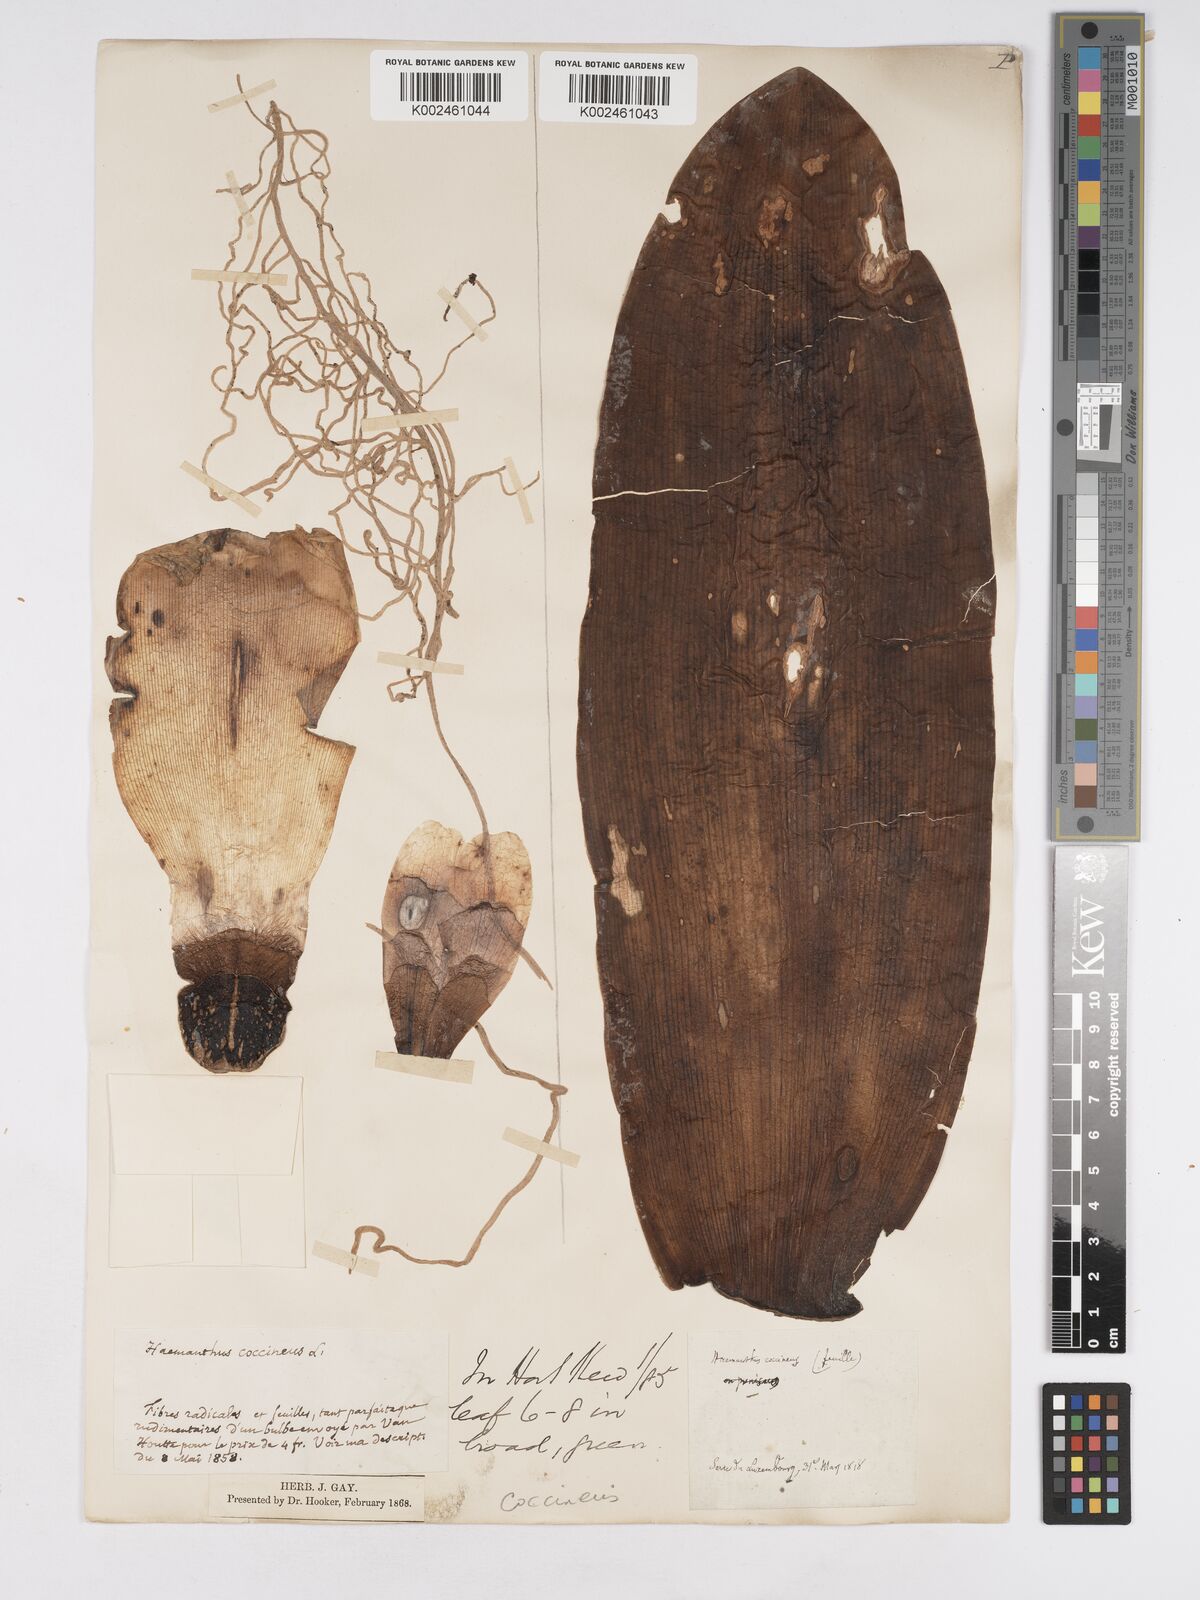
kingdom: Plantae
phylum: Tracheophyta
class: Liliopsida
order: Asparagales
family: Amaryllidaceae
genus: Haemanthus
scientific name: Haemanthus coccineus
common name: Cape-tulip
